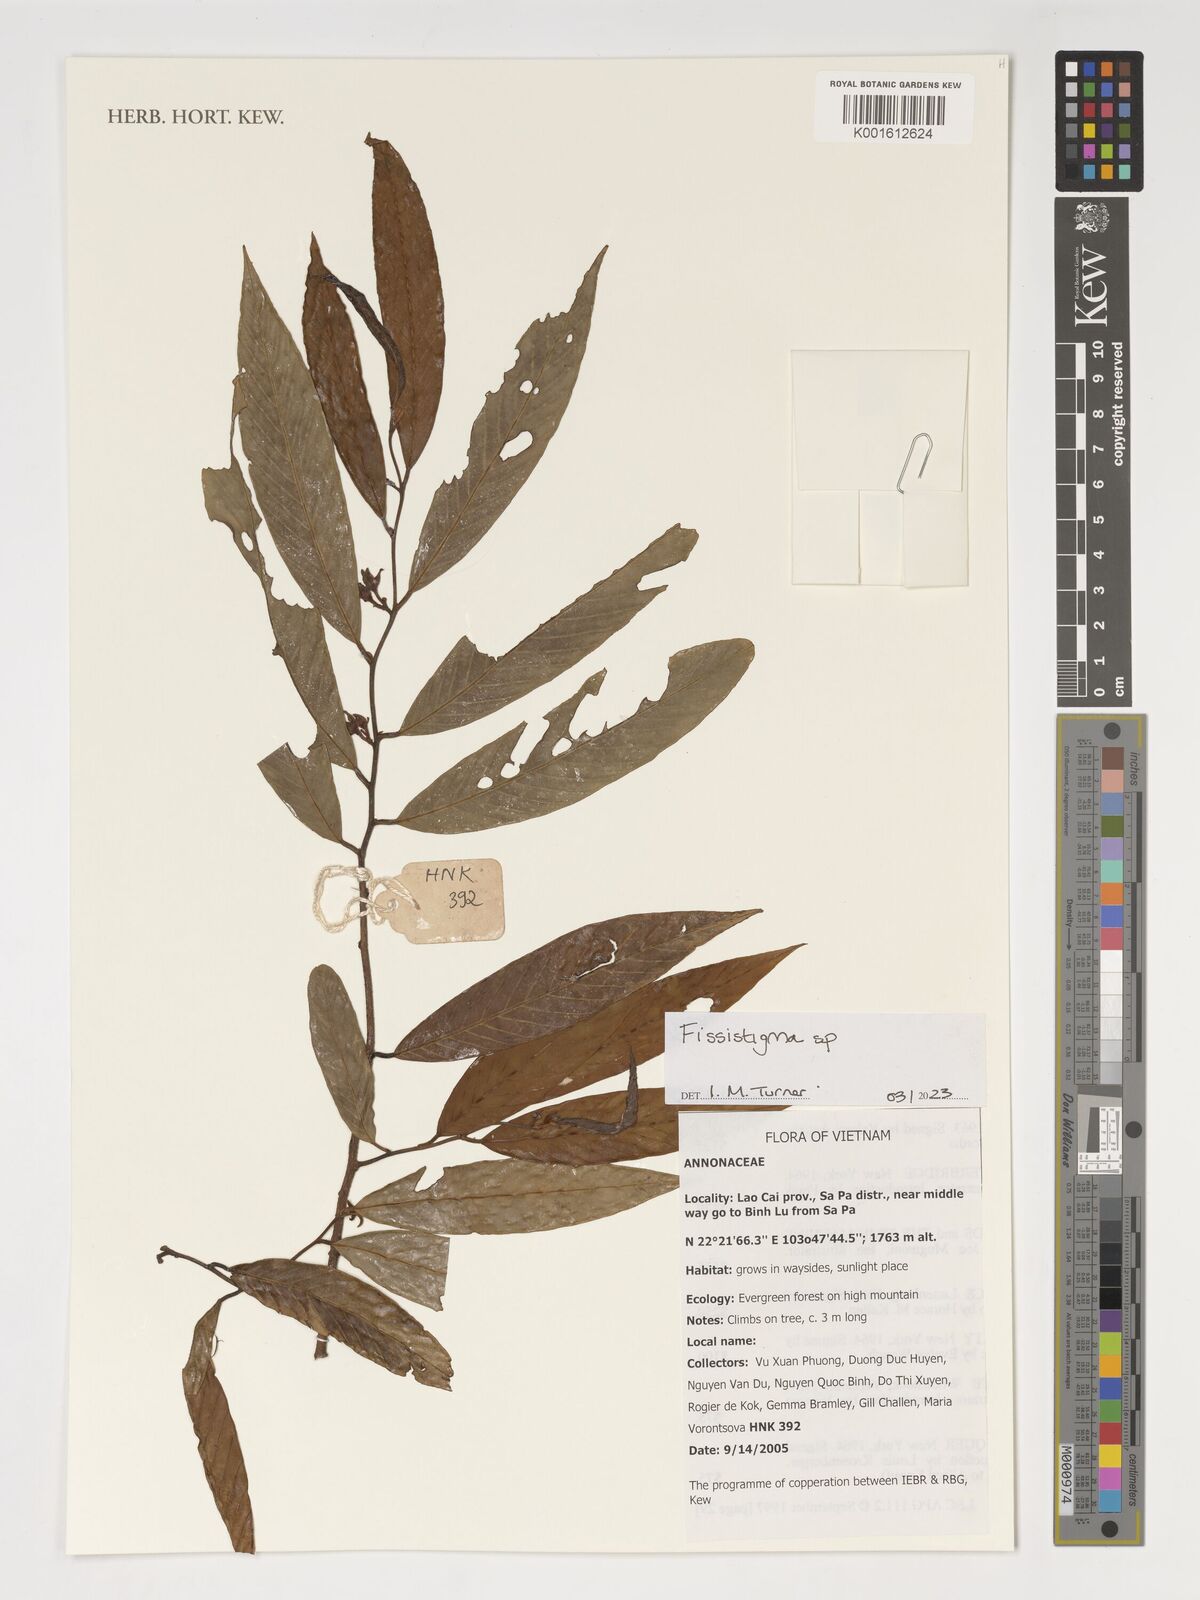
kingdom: Plantae
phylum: Tracheophyta
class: Magnoliopsida
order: Magnoliales
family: Annonaceae
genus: Fissistigma
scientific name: Fissistigma
